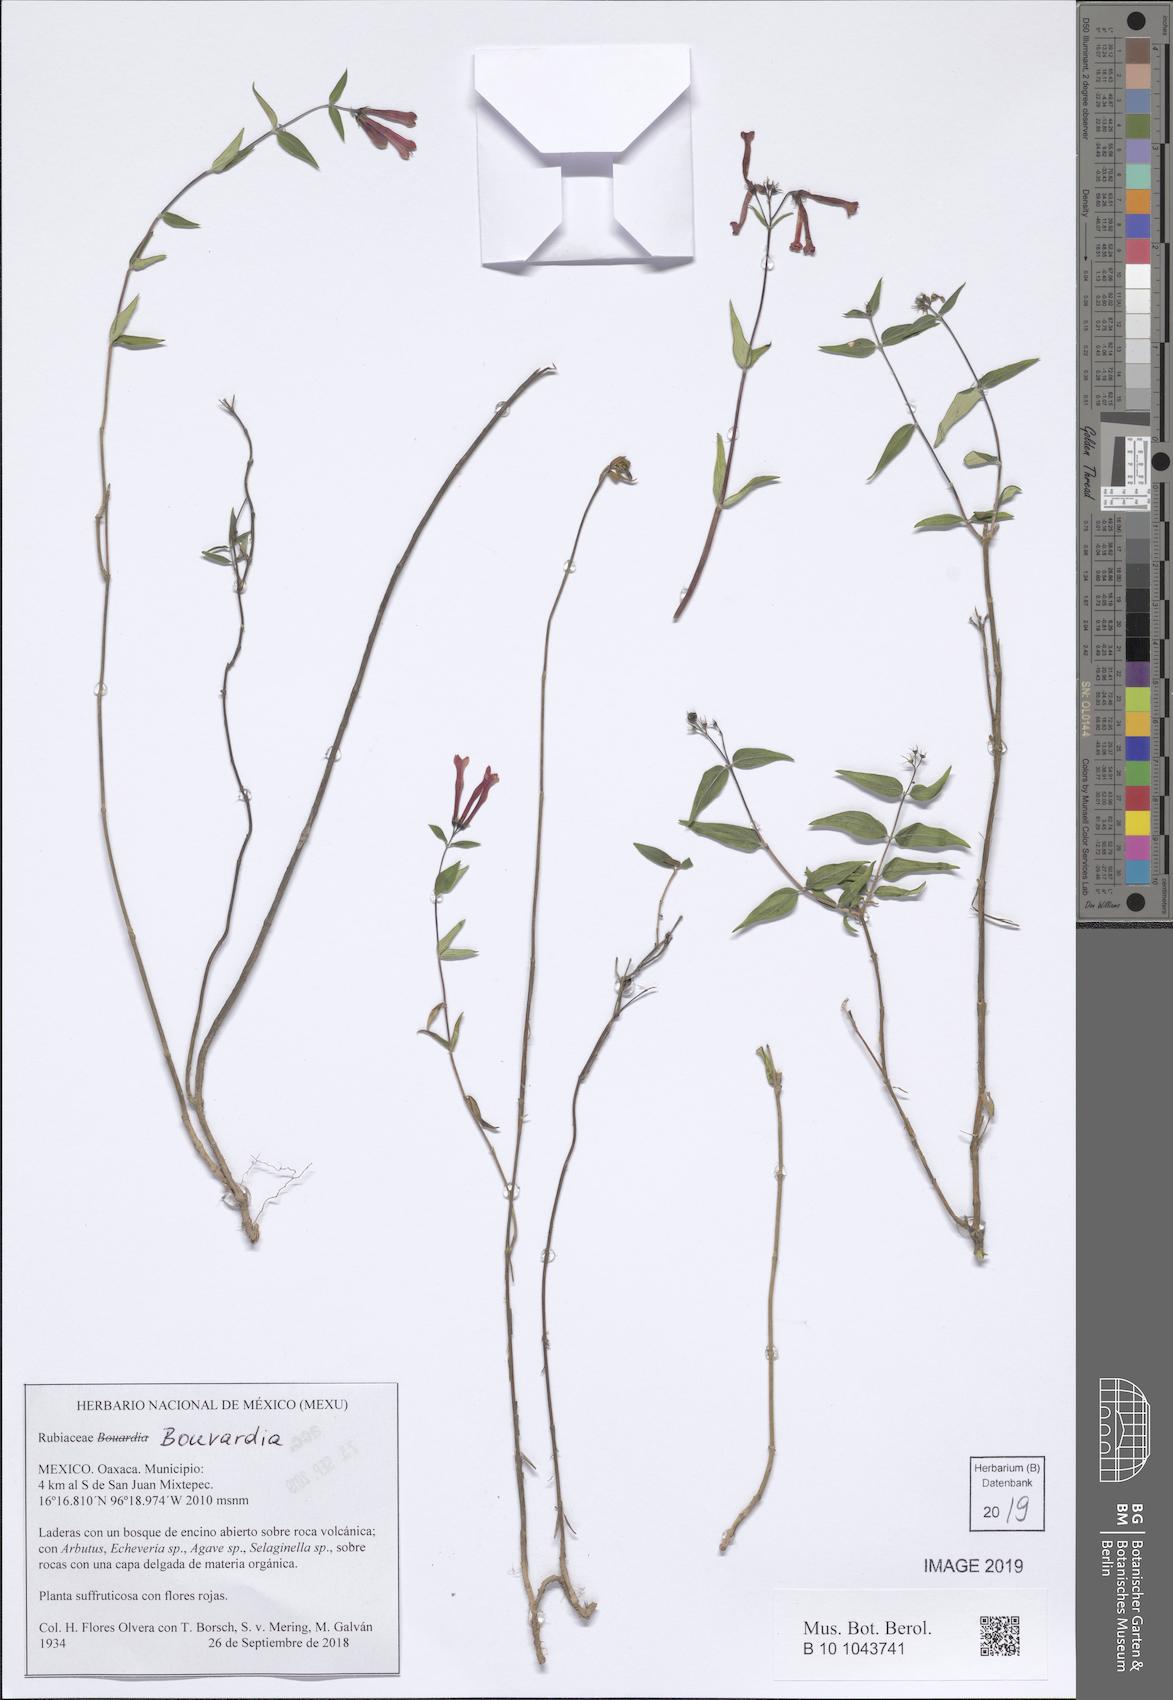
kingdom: Plantae
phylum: Tracheophyta
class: Magnoliopsida
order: Gentianales
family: Rubiaceae
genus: Bouvardia
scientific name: Bouvardia
